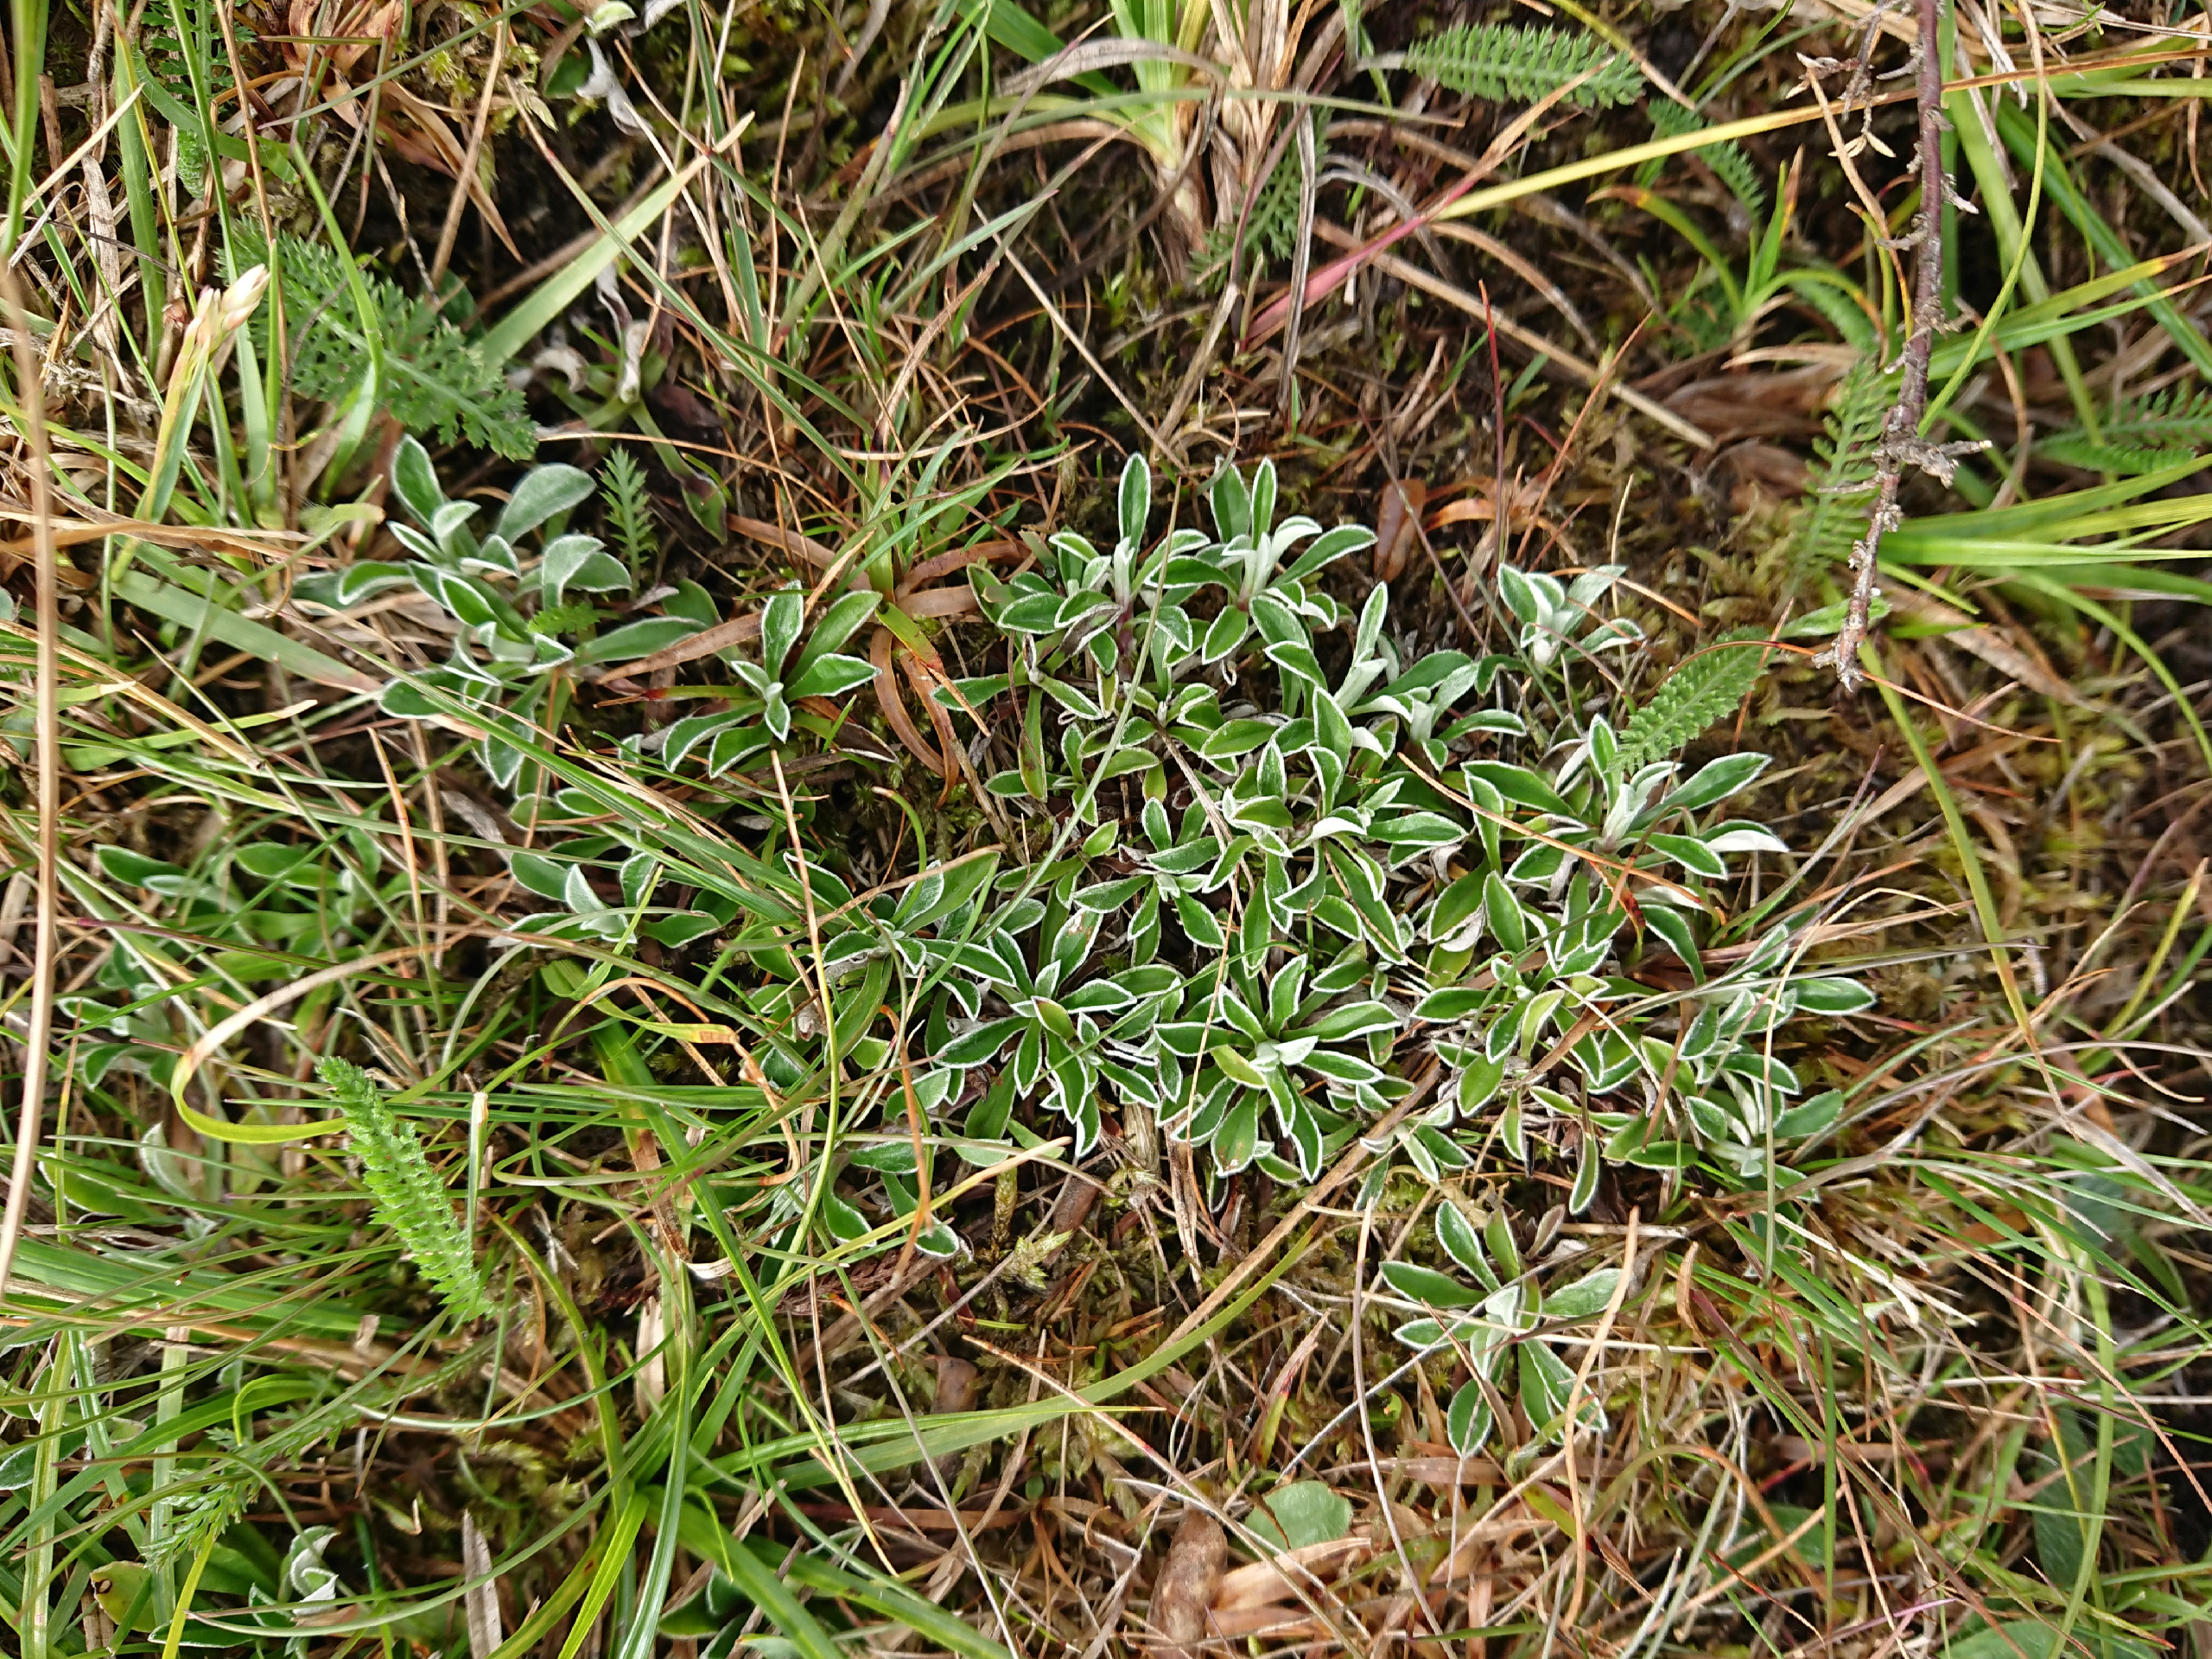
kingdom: Plantae
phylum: Tracheophyta
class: Magnoliopsida
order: Asterales
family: Asteraceae
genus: Antennaria
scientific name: Antennaria dioica
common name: Kattefod
